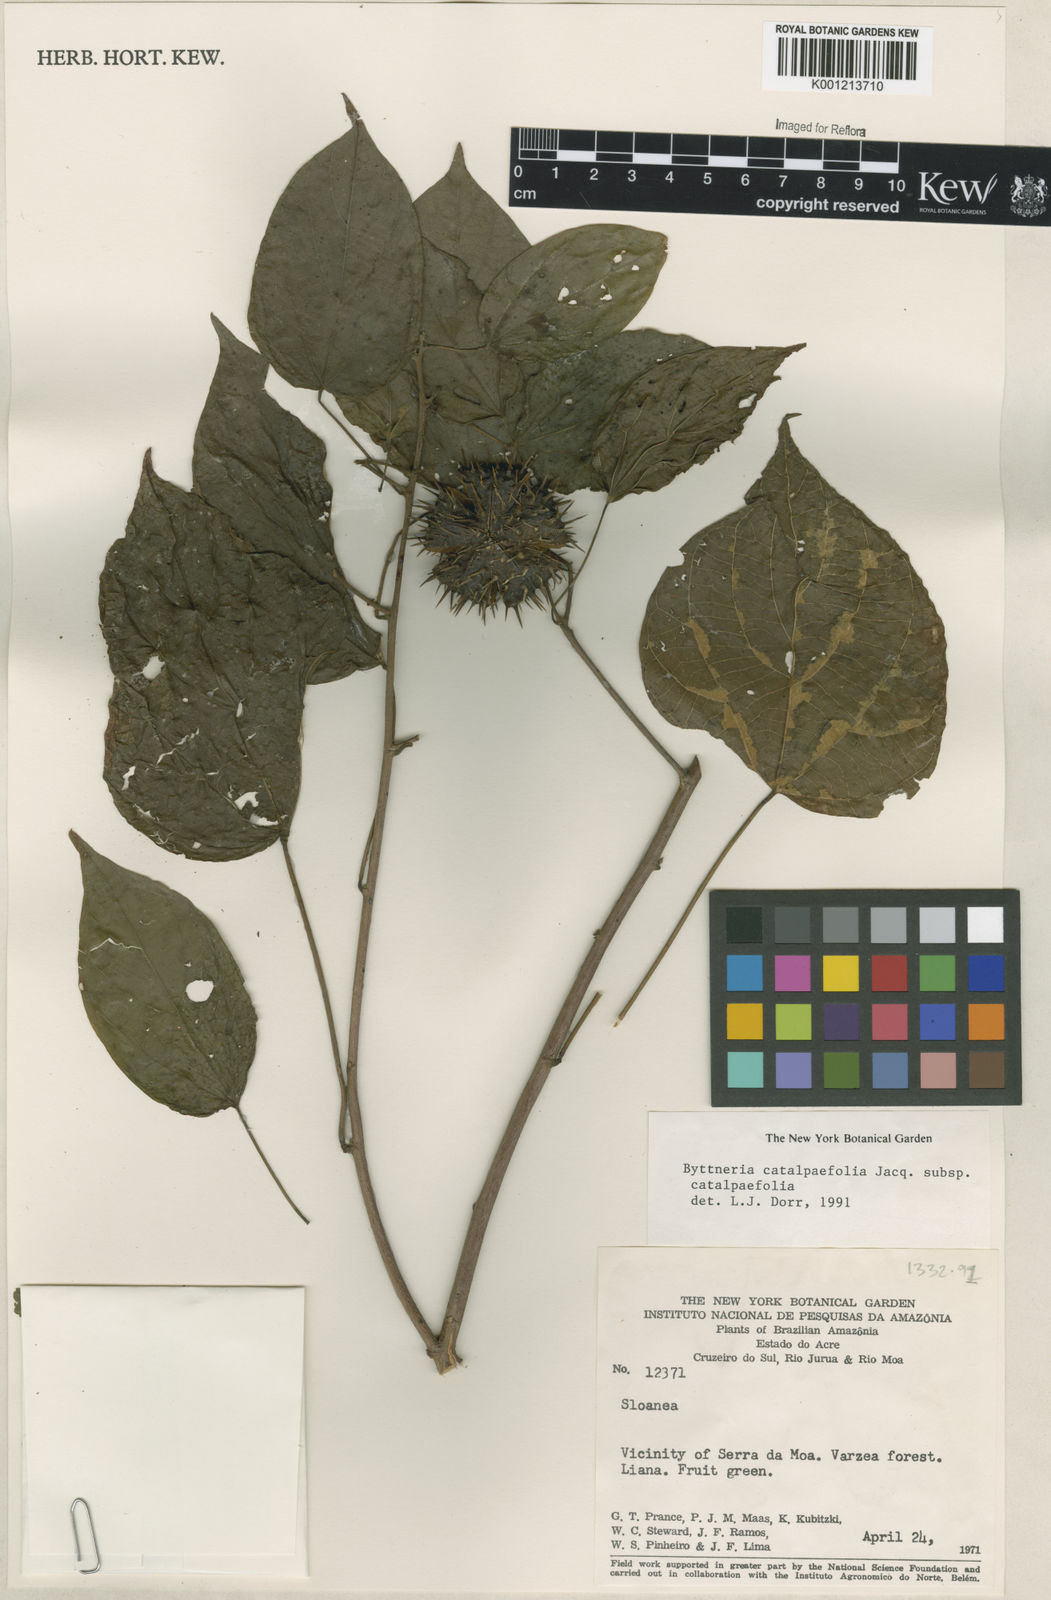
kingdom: Plantae
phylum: Tracheophyta
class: Magnoliopsida
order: Malvales
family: Malvaceae
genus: Byttneria
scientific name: Byttneria catalpifolia
